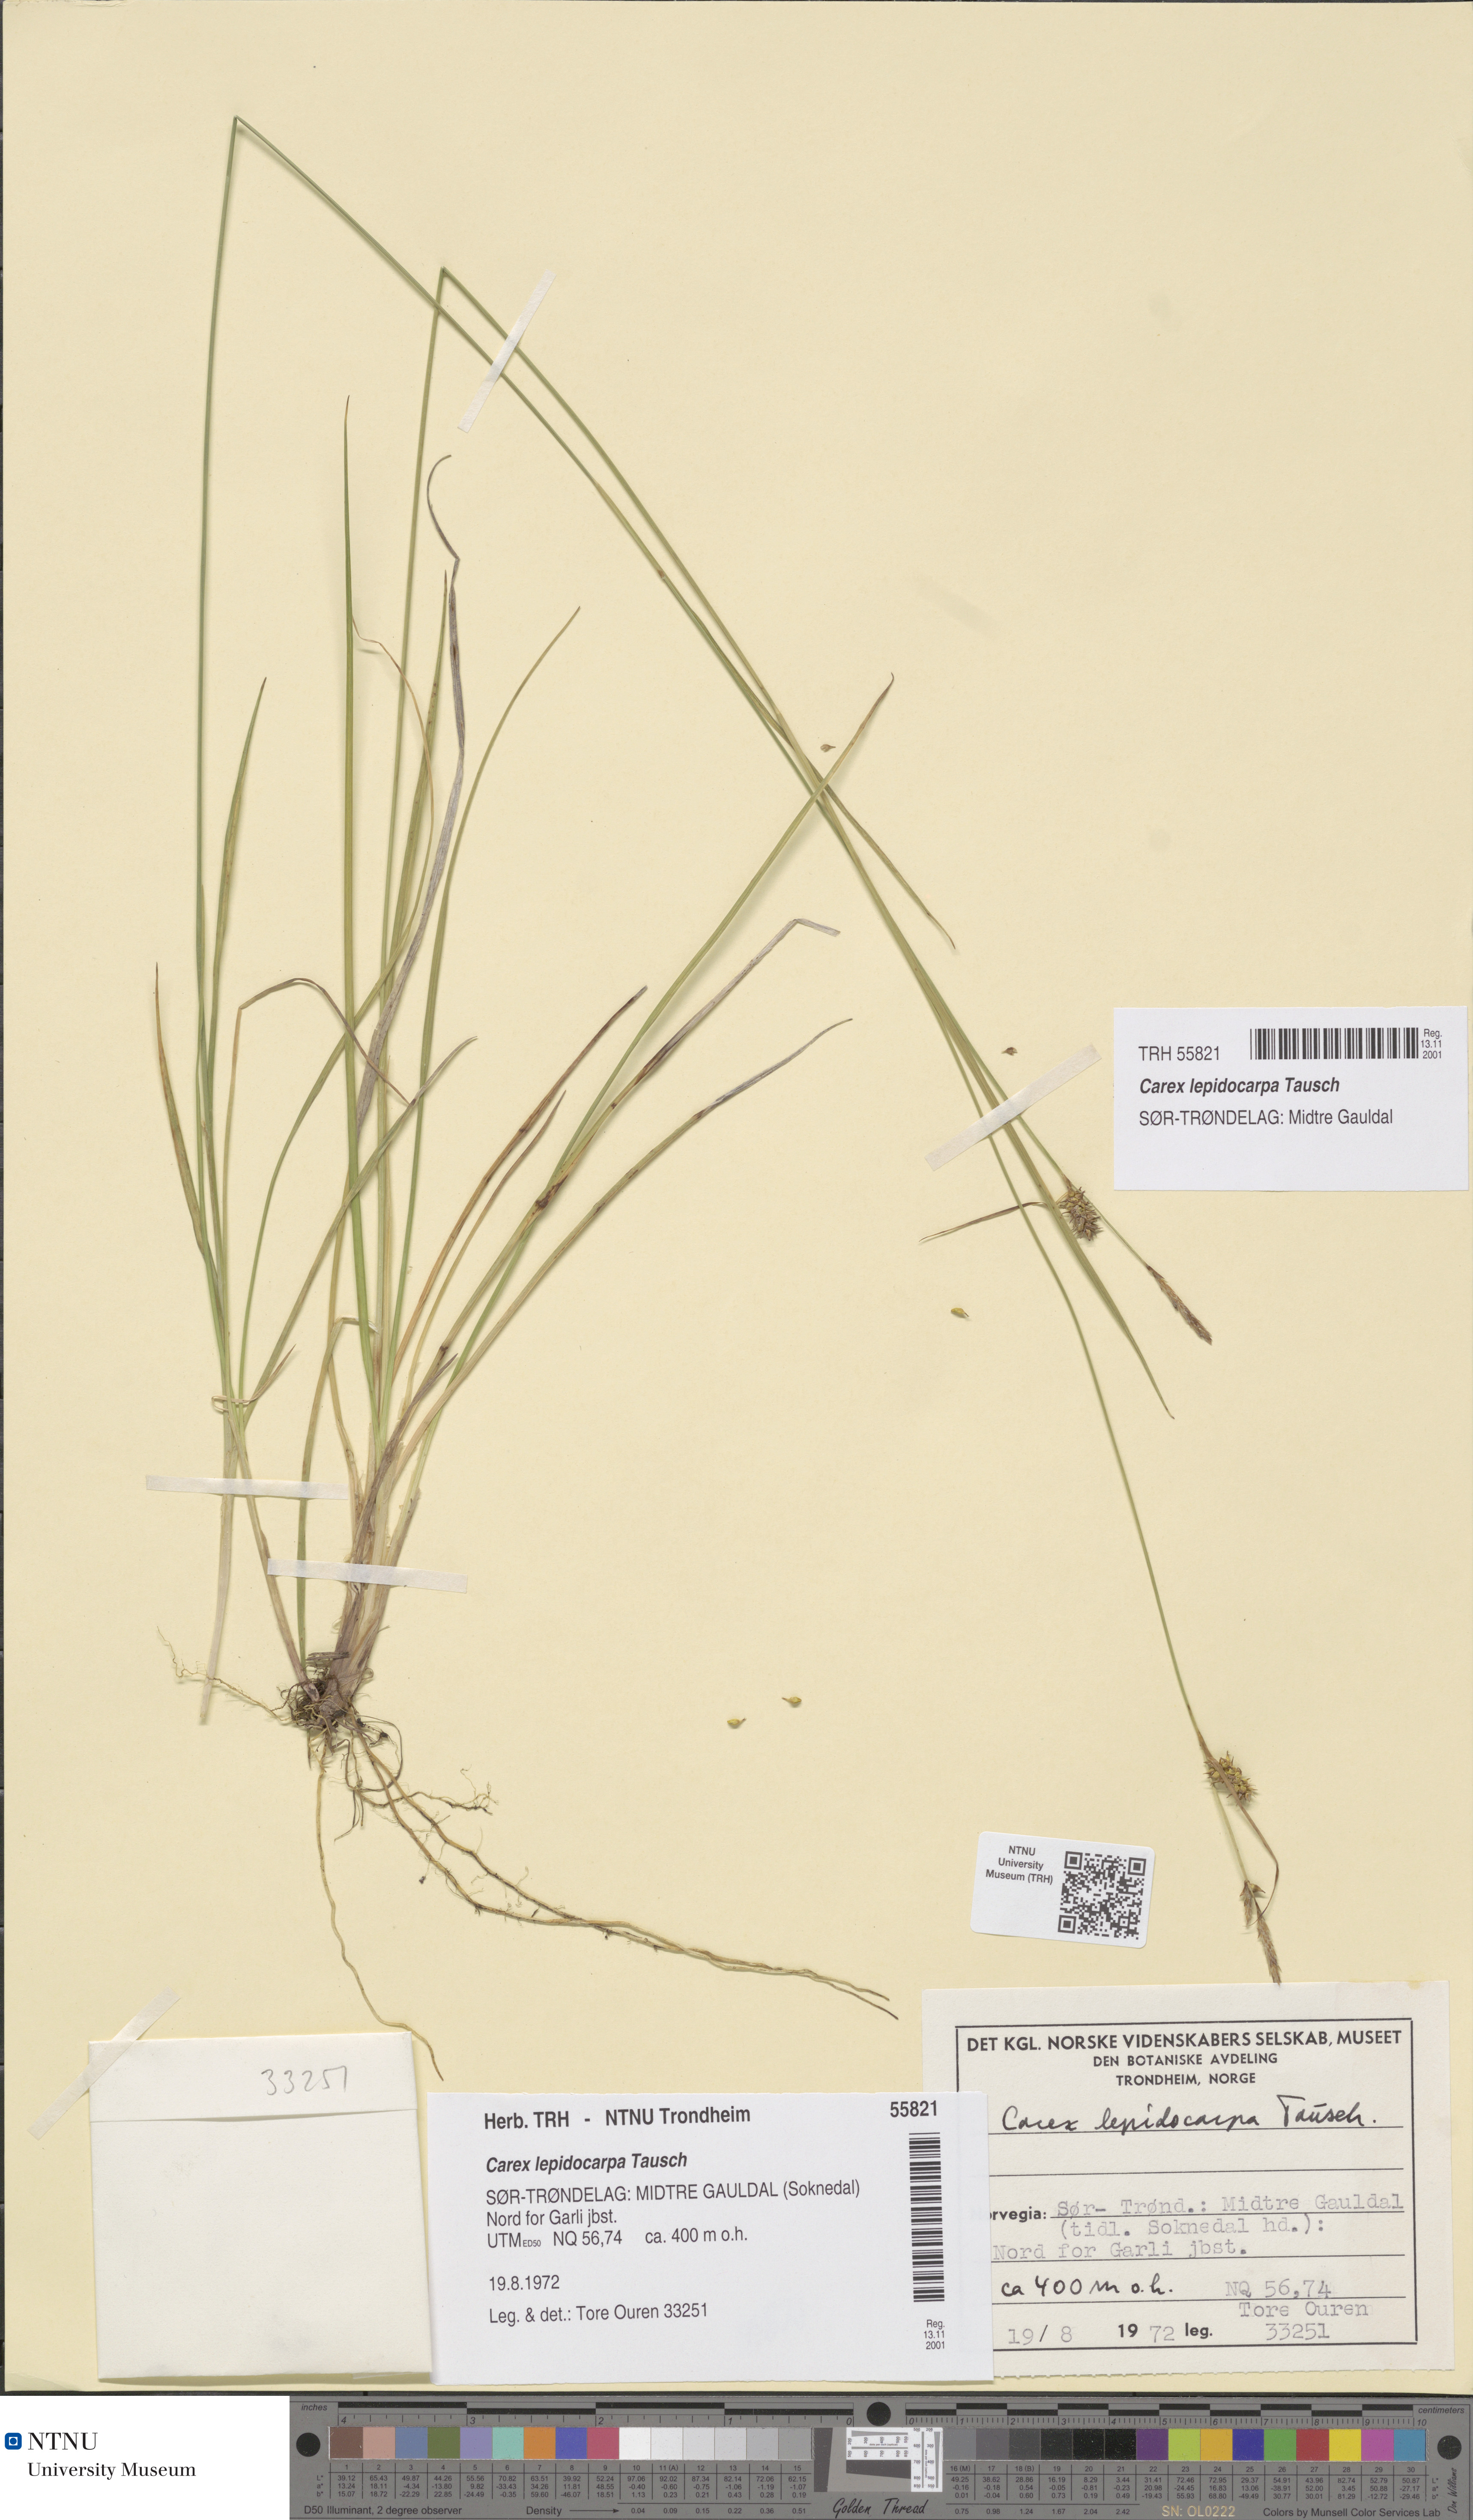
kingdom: Plantae
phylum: Tracheophyta
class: Liliopsida
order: Poales
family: Cyperaceae
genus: Carex
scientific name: Carex lepidocarpa
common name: Long-stalked yellow-sedge
